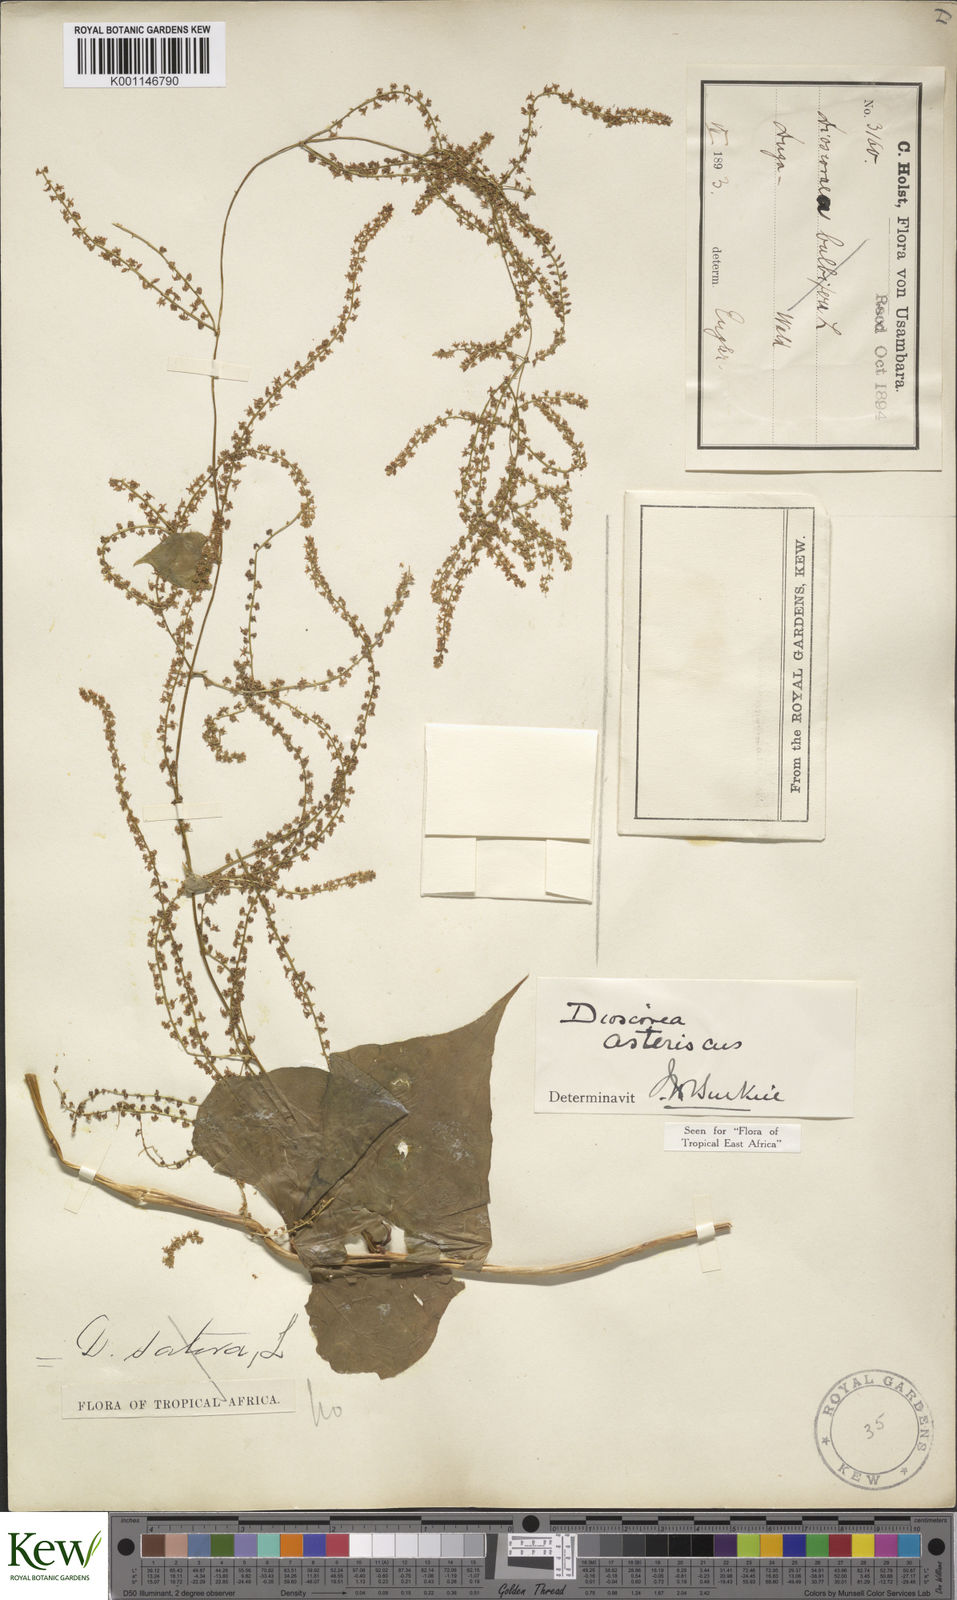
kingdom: Plantae
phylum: Tracheophyta
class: Liliopsida
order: Dioscoreales
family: Dioscoreaceae
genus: Dioscorea
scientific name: Dioscorea asteriscus
